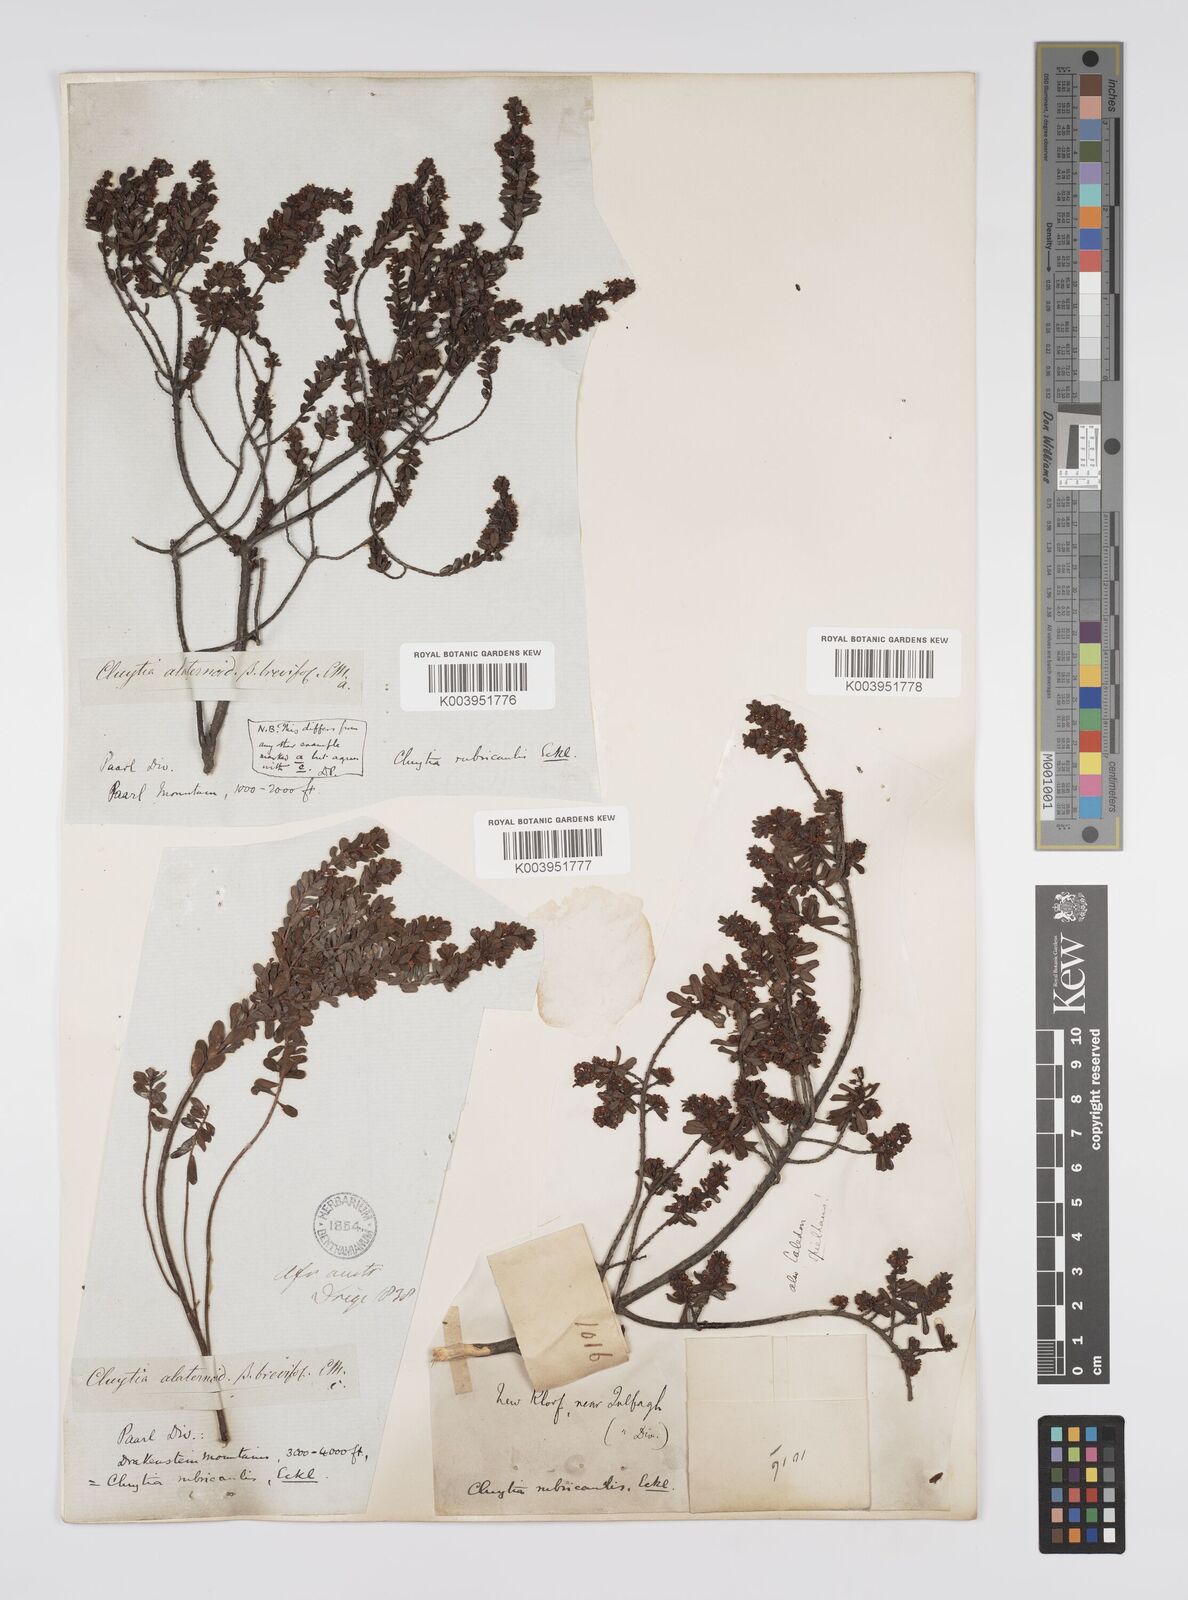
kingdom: Plantae
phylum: Tracheophyta
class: Magnoliopsida
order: Malpighiales
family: Peraceae
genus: Clutia
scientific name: Clutia rubricaulis
